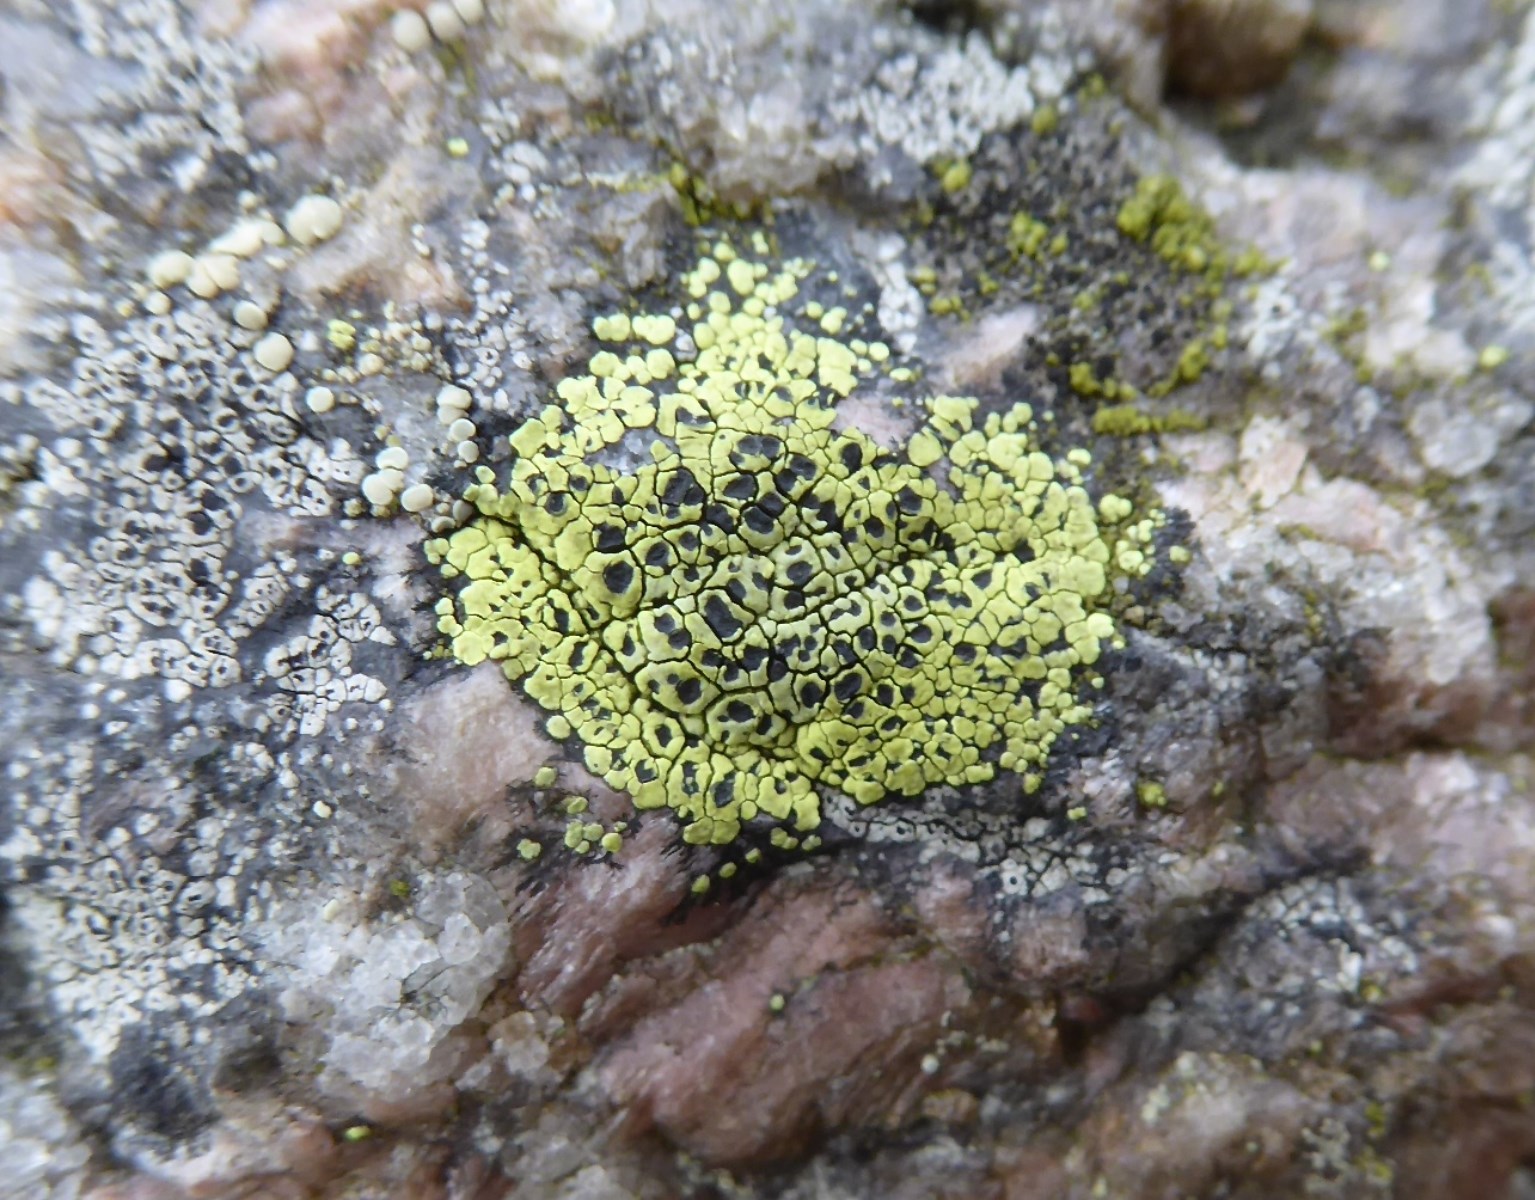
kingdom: Fungi
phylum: Ascomycota
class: Lecanoromycetes
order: Rhizocarpales
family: Rhizocarpaceae
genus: Rhizocarpon
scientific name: Rhizocarpon lecanorinum
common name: krave-landkortlav
